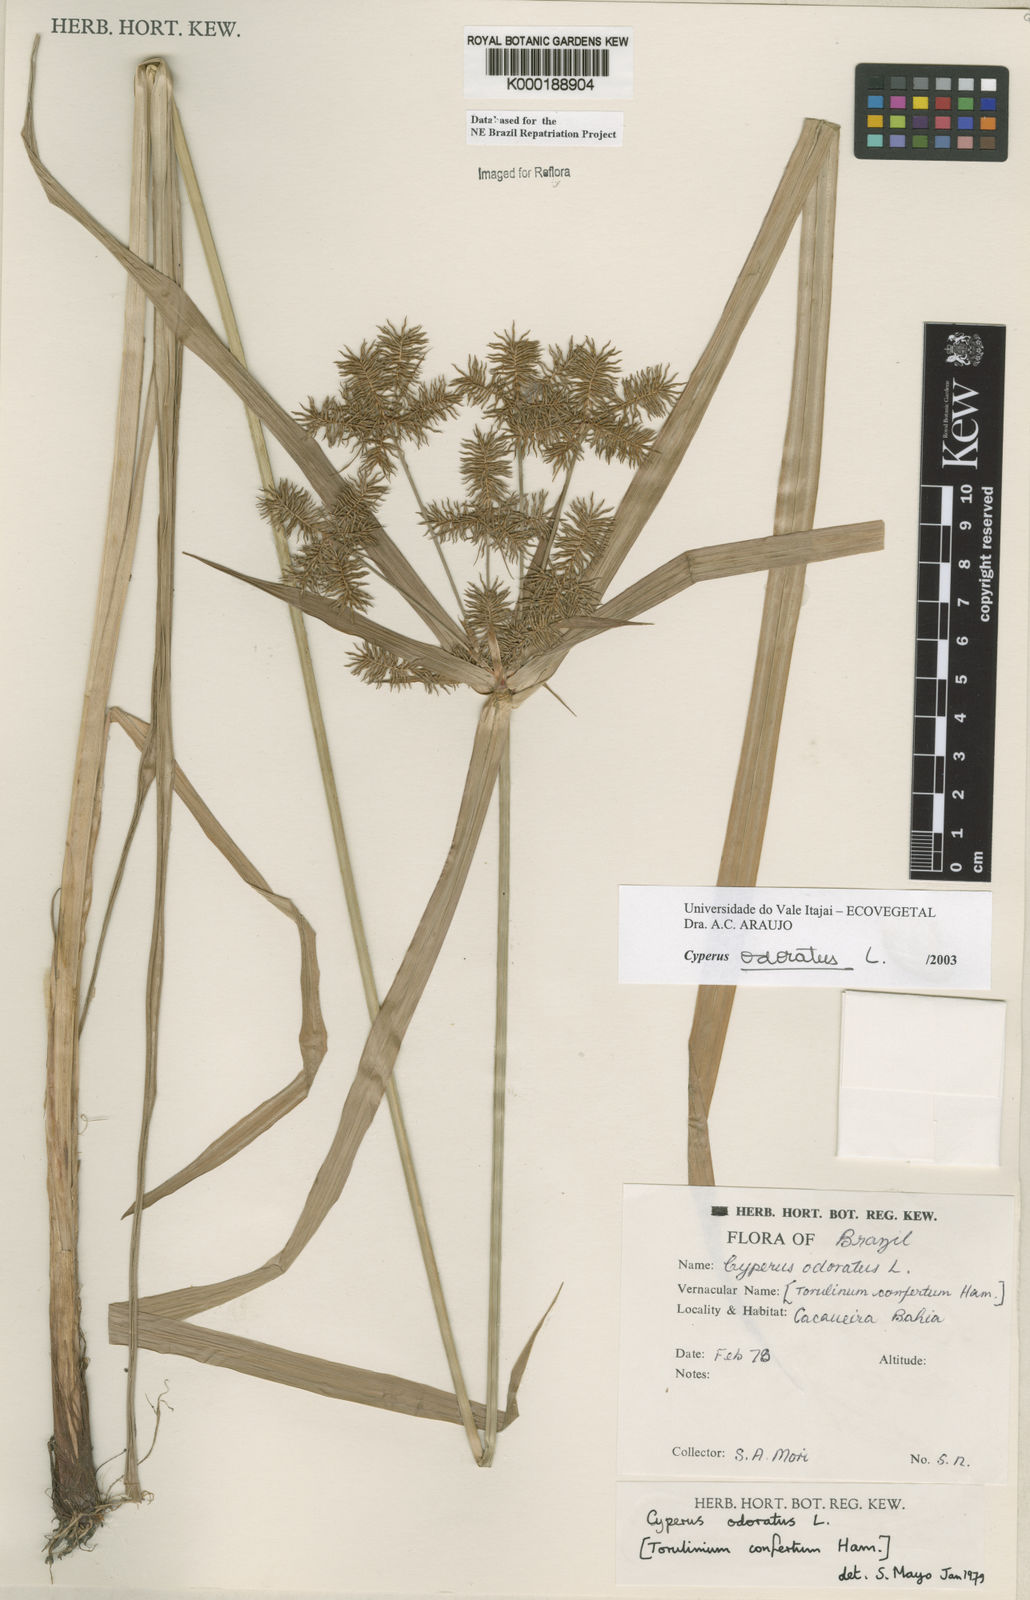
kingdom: Plantae
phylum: Tracheophyta
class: Liliopsida
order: Poales
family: Cyperaceae
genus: Cyperus
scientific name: Cyperus odoratus
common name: Fragrant flatsedge
